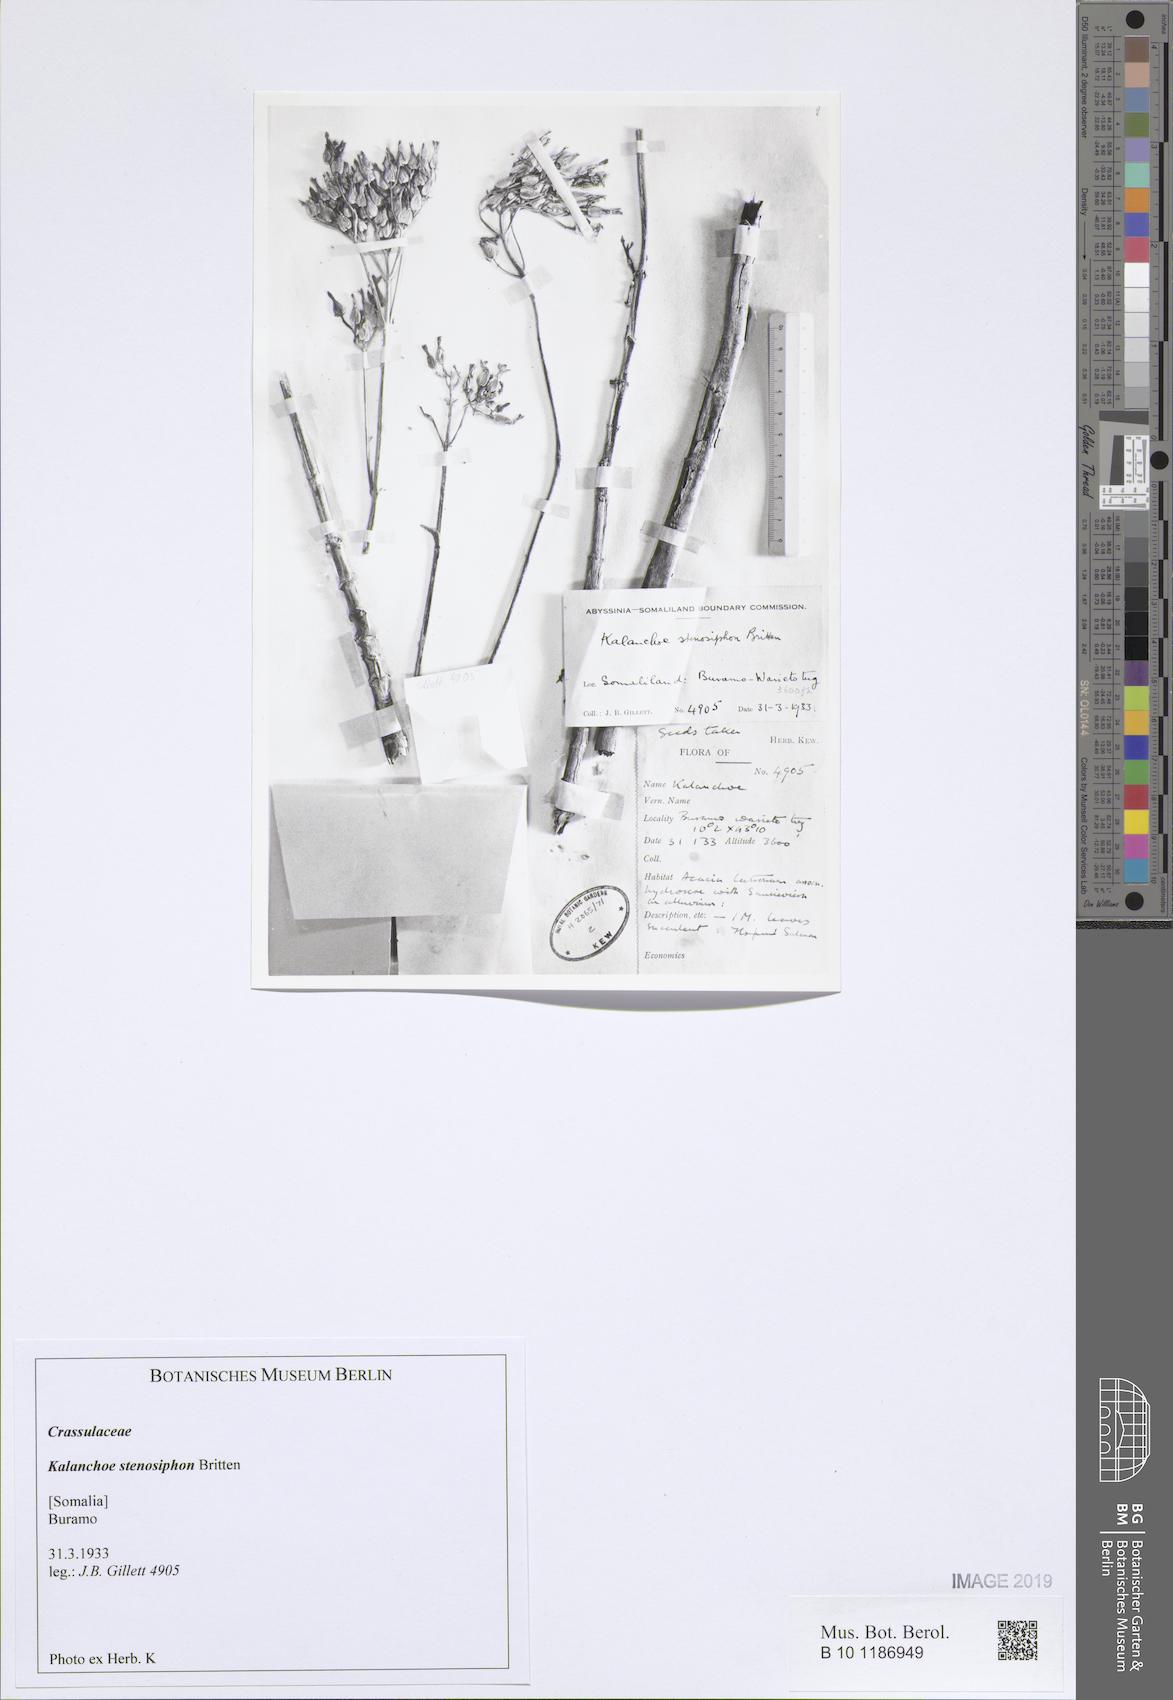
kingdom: Plantae
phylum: Tracheophyta
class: Magnoliopsida
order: Saxifragales
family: Crassulaceae
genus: Kalanchoe
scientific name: Kalanchoe stenosiphon
